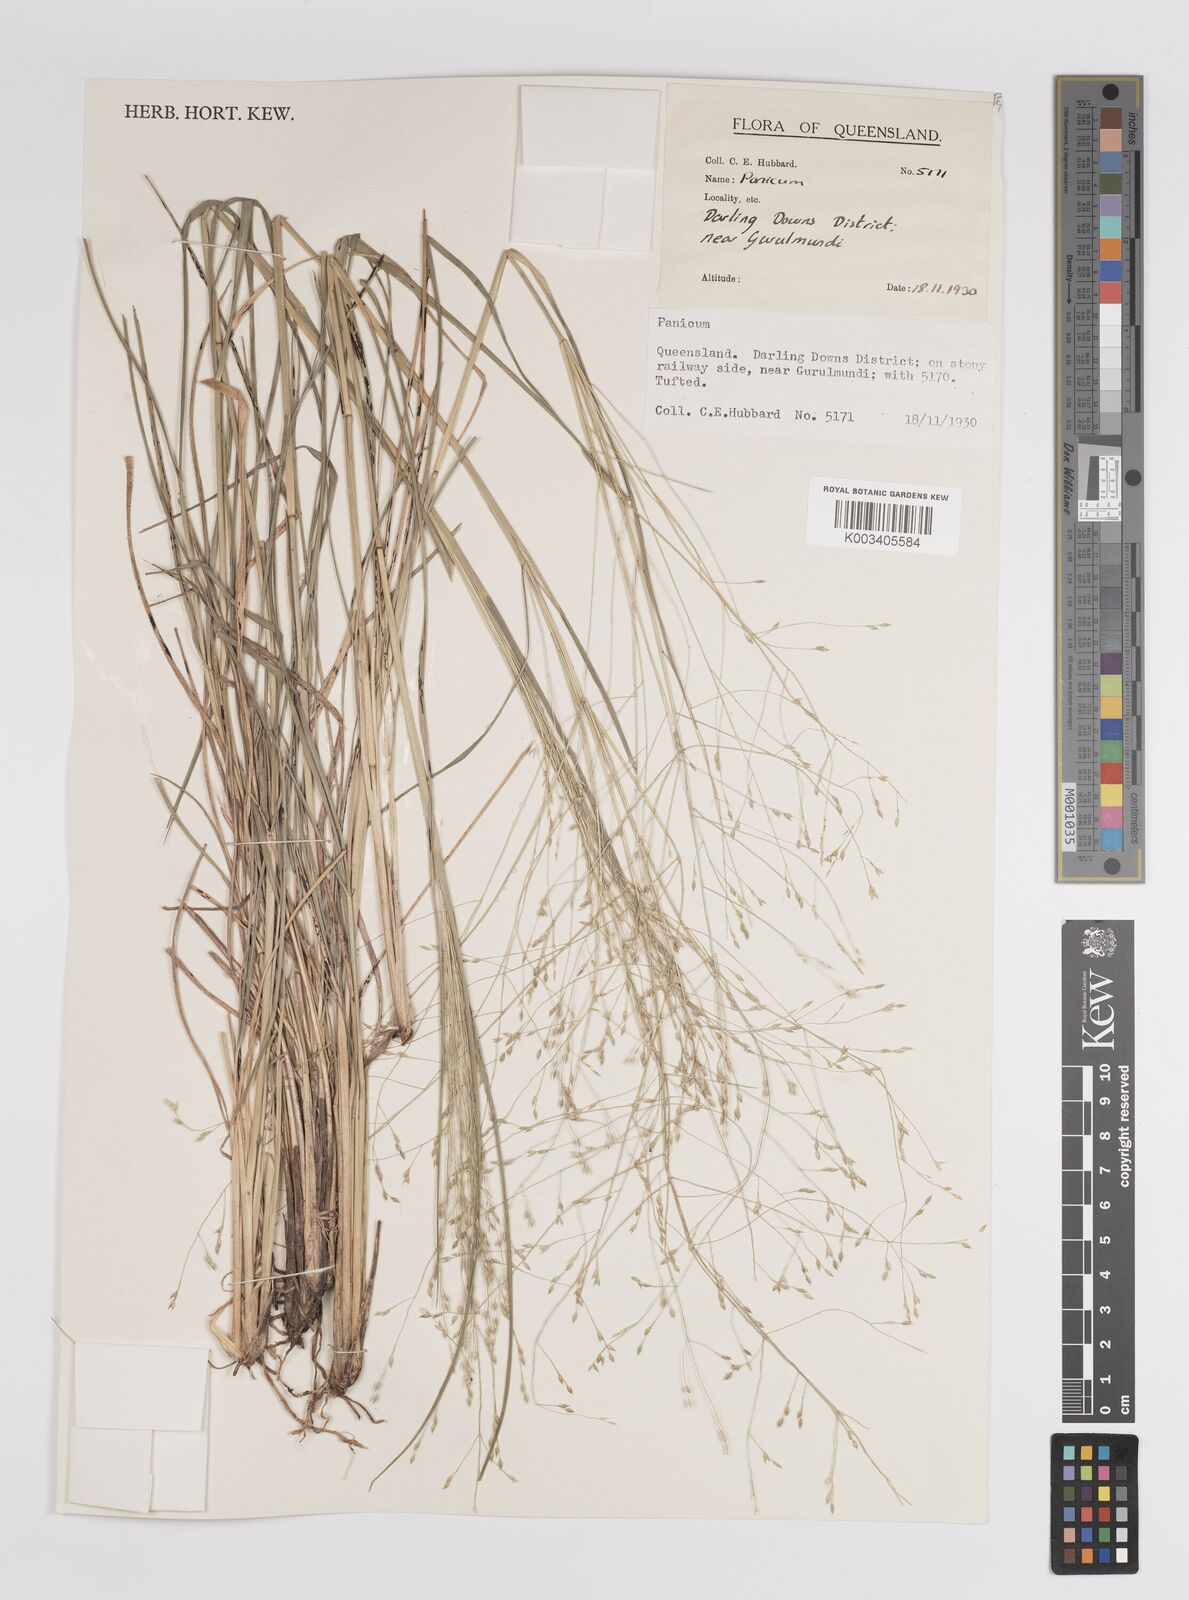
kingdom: Plantae
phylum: Tracheophyta
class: Liliopsida
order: Poales
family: Poaceae
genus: Panicum
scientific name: Panicum
